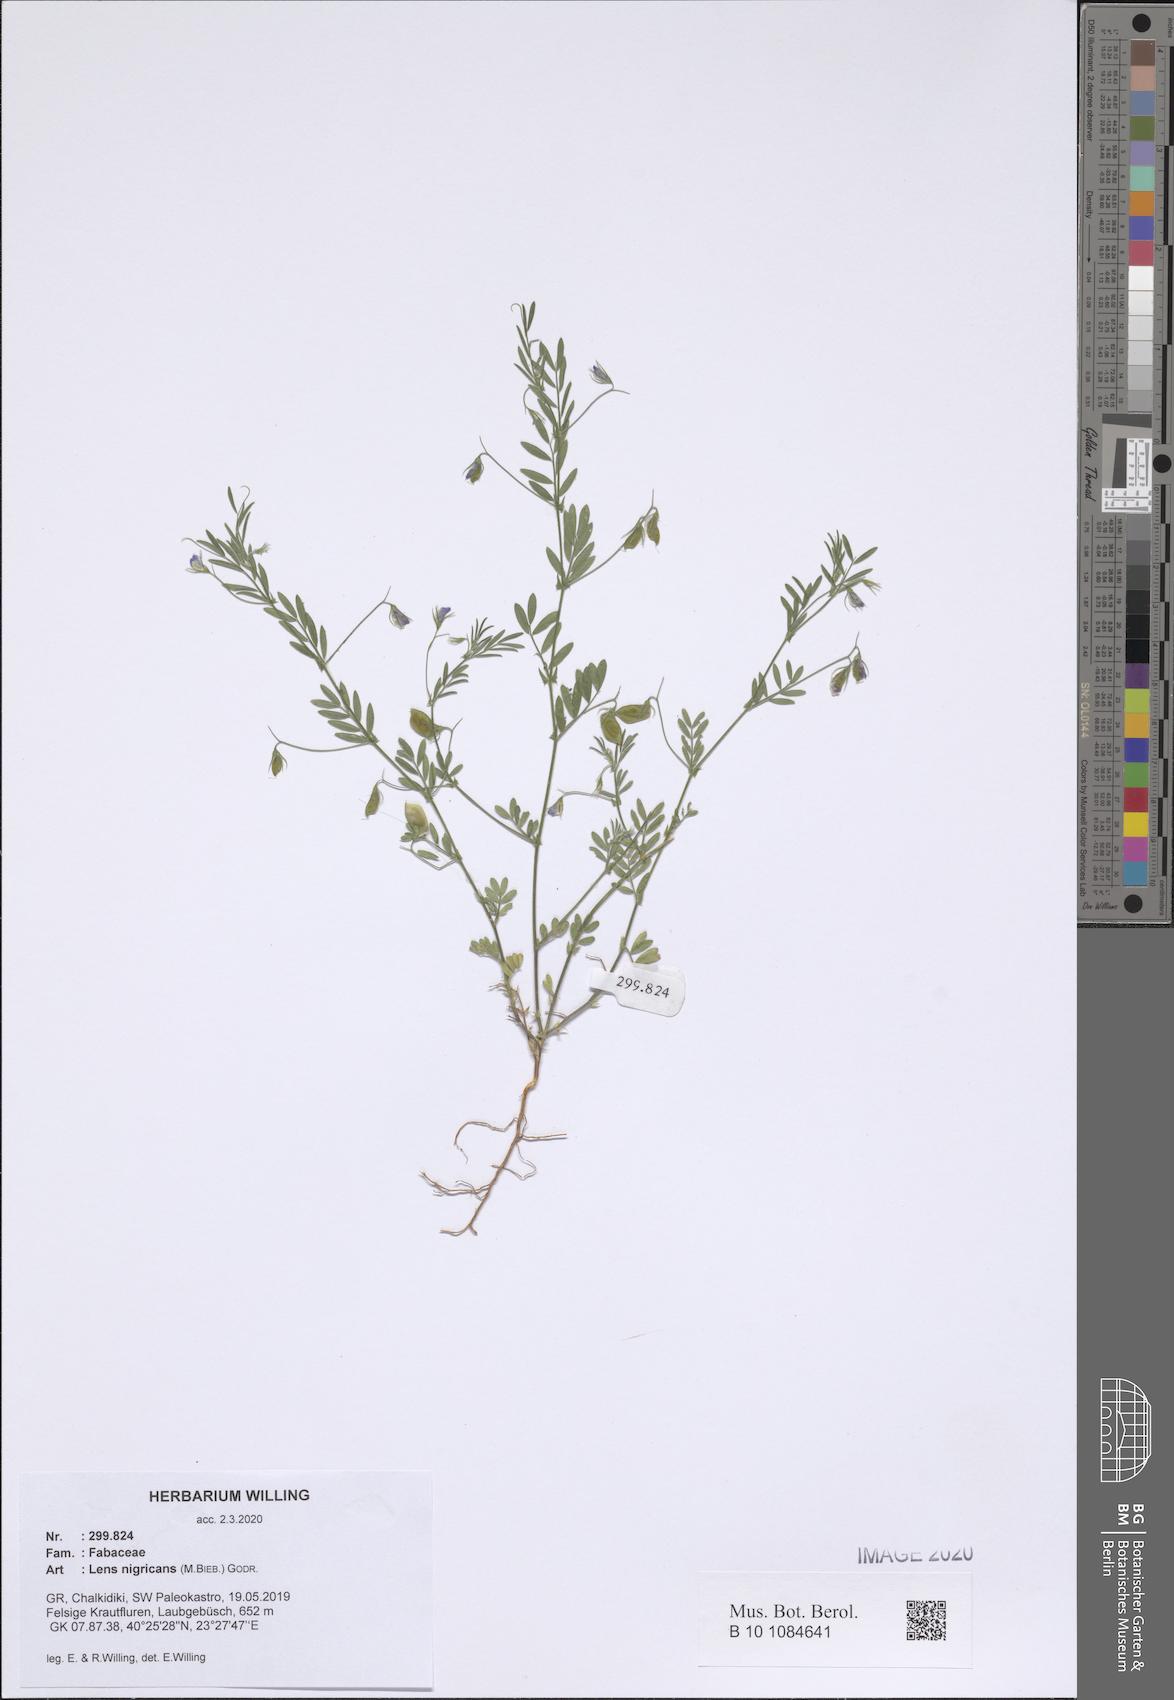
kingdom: Plantae
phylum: Tracheophyta
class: Magnoliopsida
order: Fabales
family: Fabaceae
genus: Vicia
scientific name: Vicia lentoides
